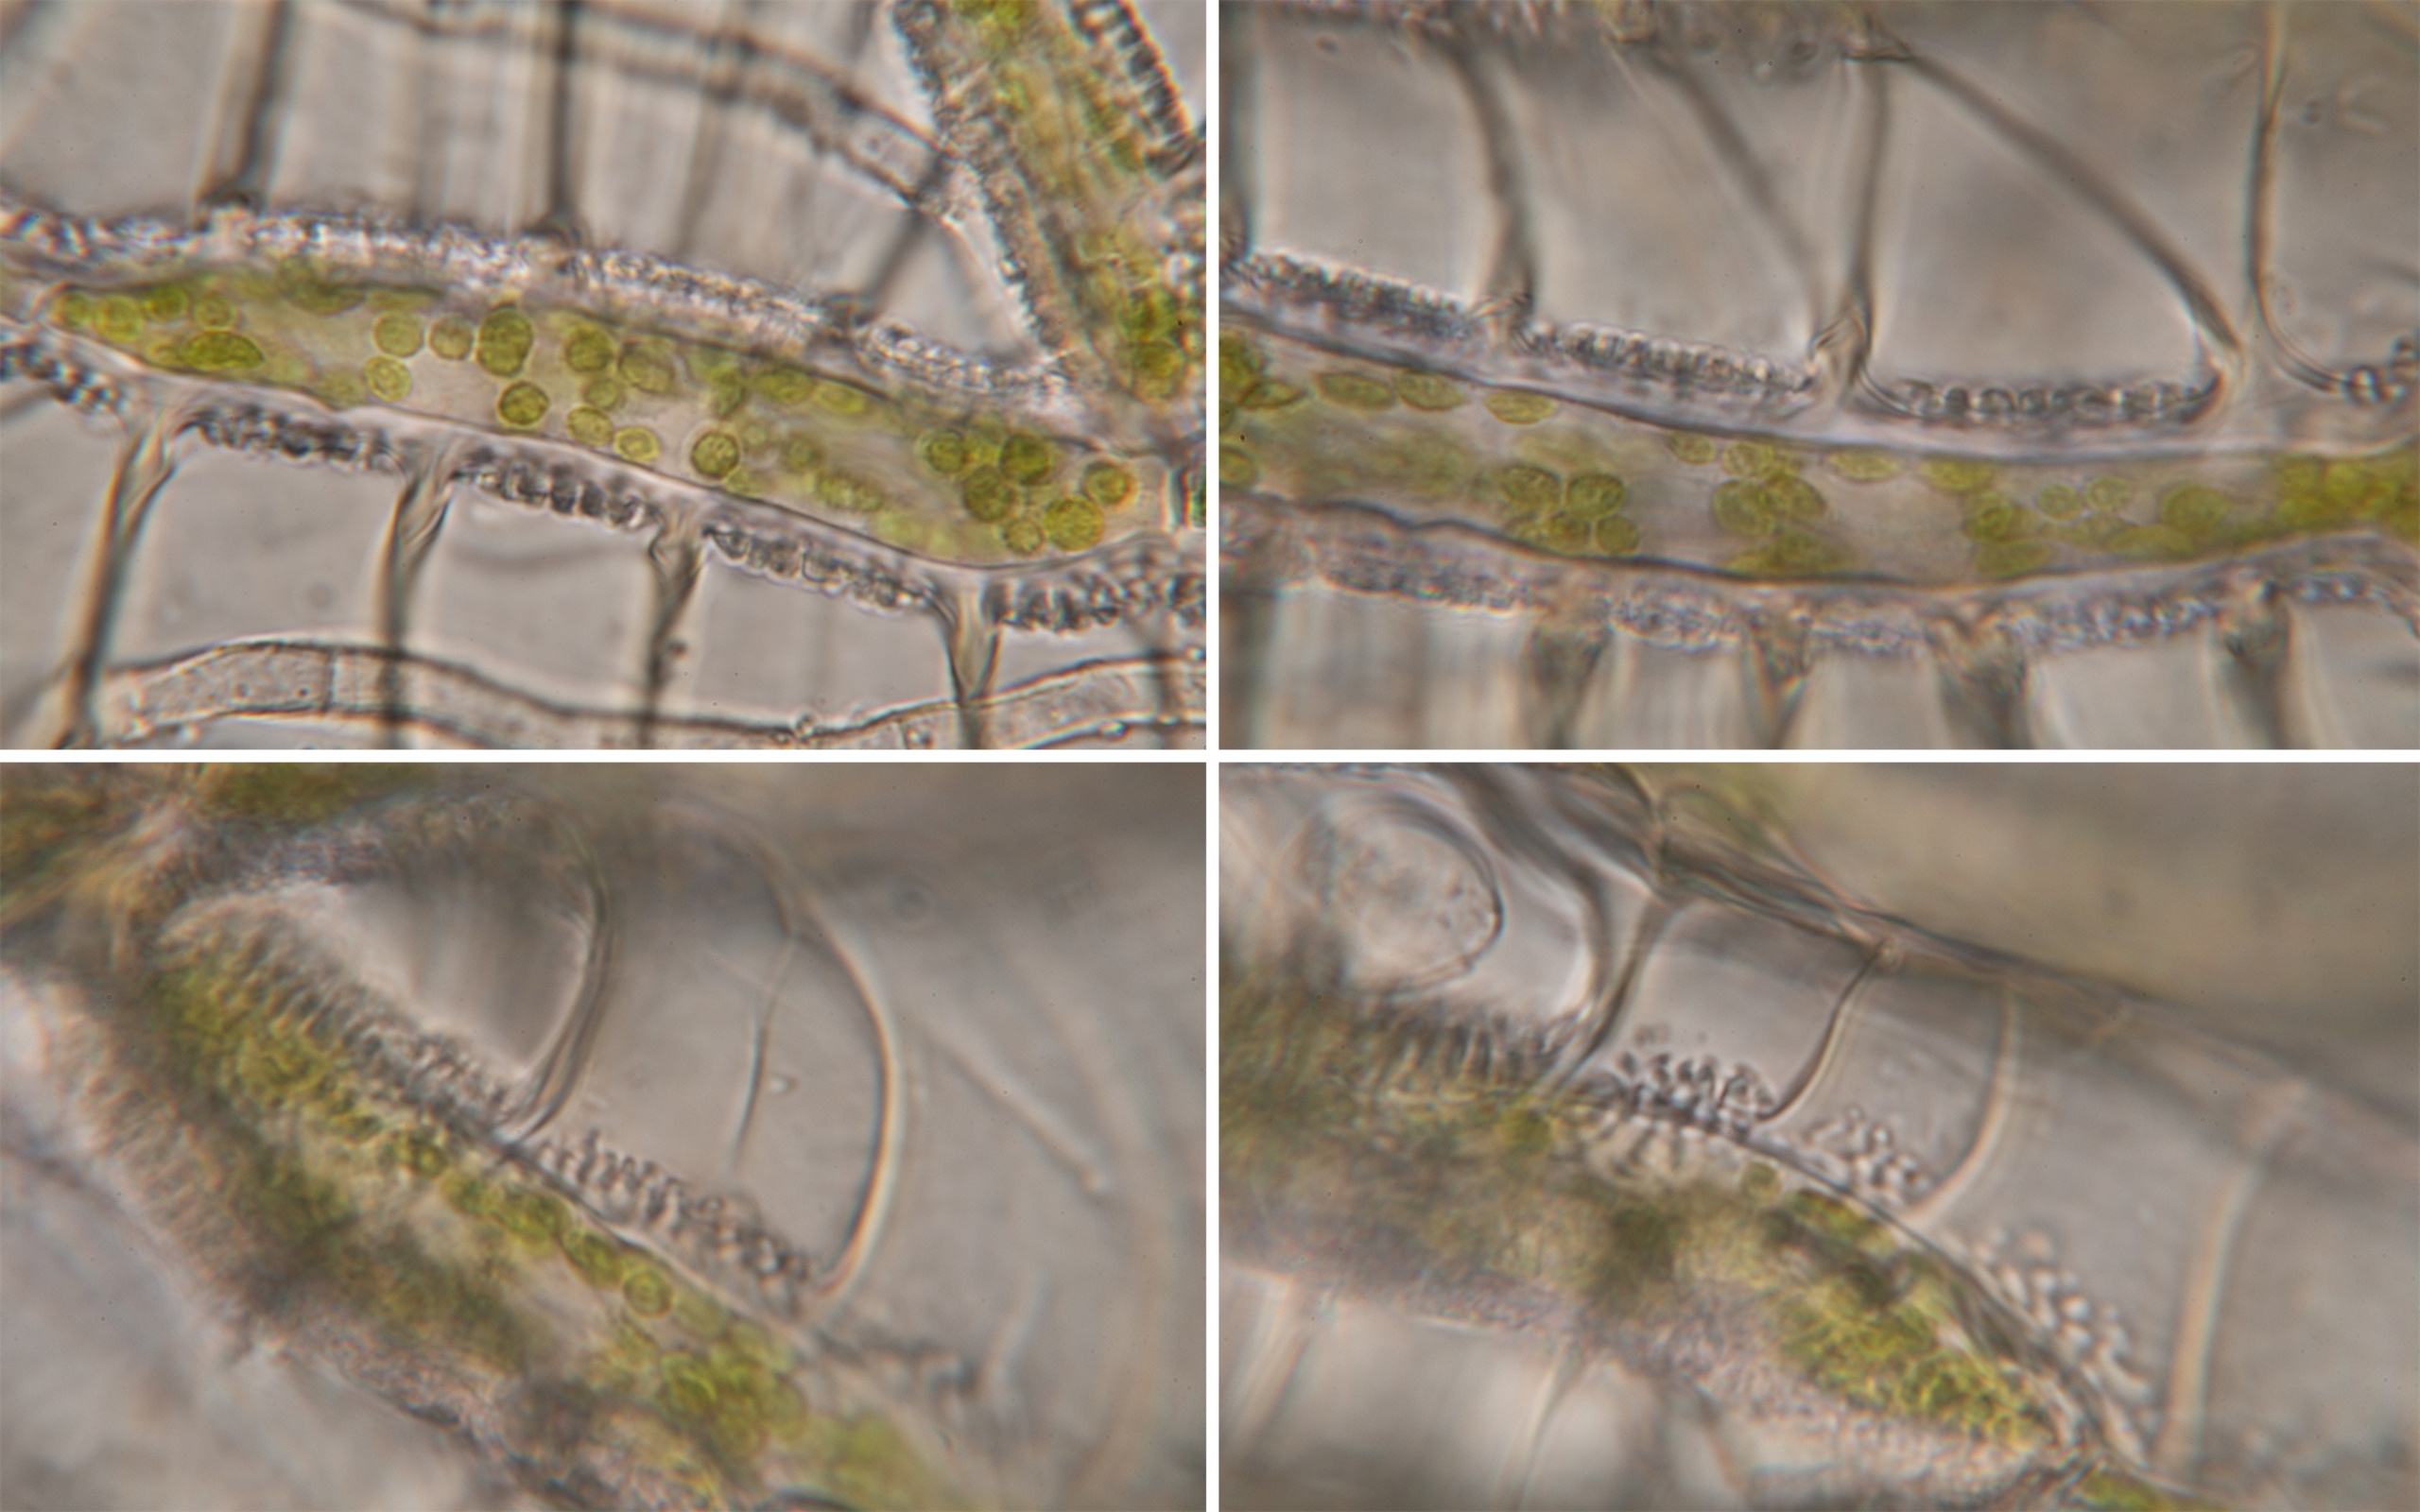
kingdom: Plantae
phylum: Bryophyta
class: Sphagnopsida
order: Sphagnales
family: Sphagnaceae
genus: Sphagnum
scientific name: Sphagnum papillosum
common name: Sod-tørvemos
